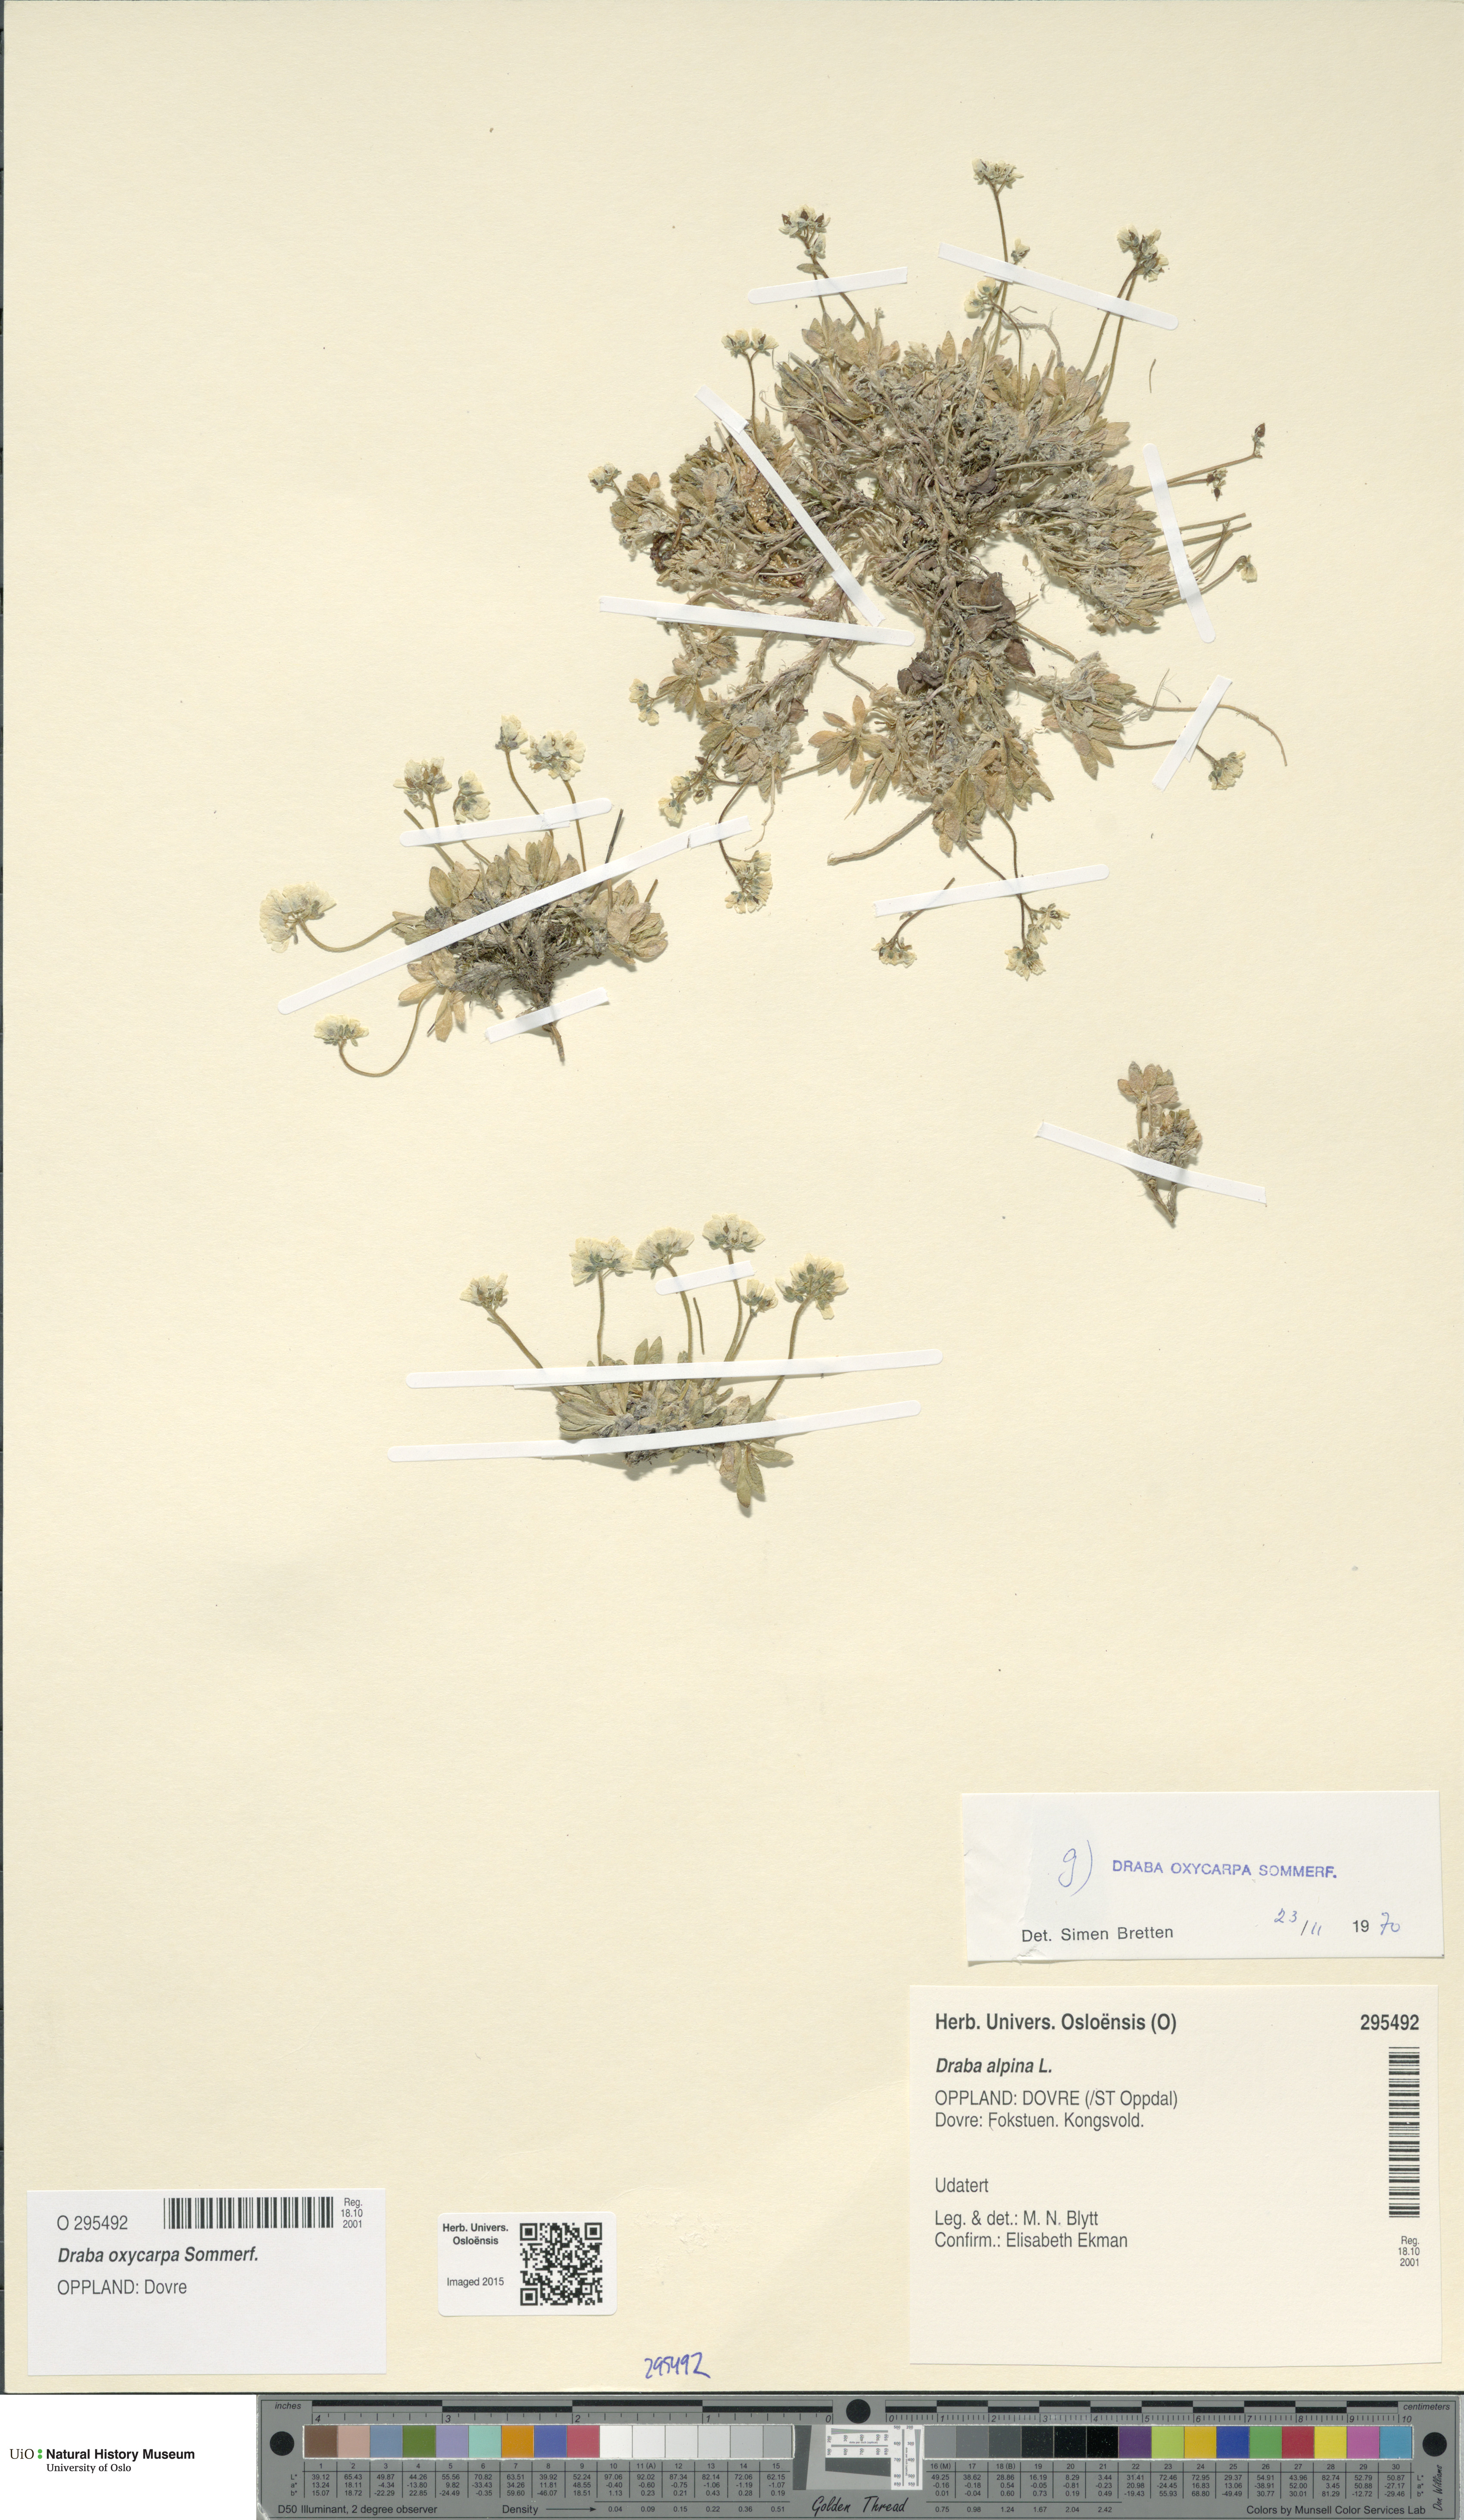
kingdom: Plantae
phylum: Tracheophyta
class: Magnoliopsida
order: Brassicales
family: Brassicaceae
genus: Draba
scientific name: Draba oxycarpa
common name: Sharp-fruited whitlow-grass
